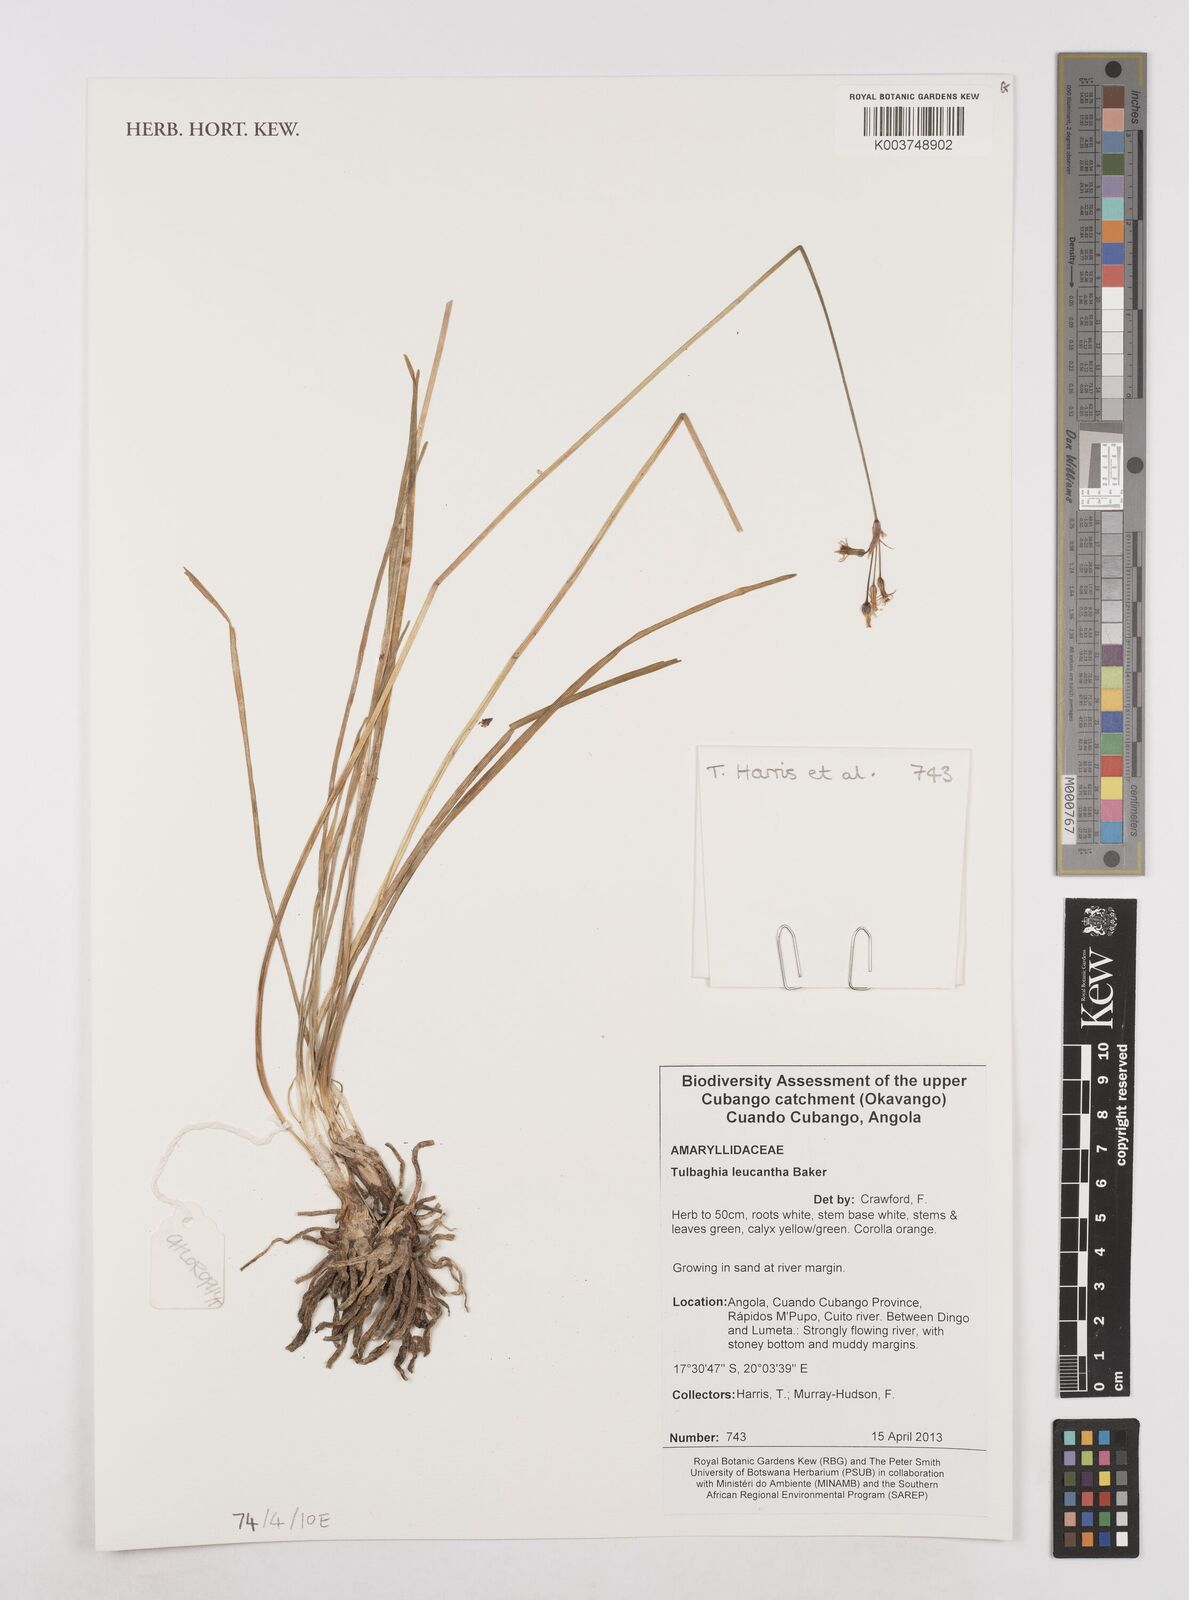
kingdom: Plantae
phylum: Tracheophyta
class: Liliopsida
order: Asparagales
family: Amaryllidaceae
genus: Tulbaghia
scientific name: Tulbaghia leucantha
